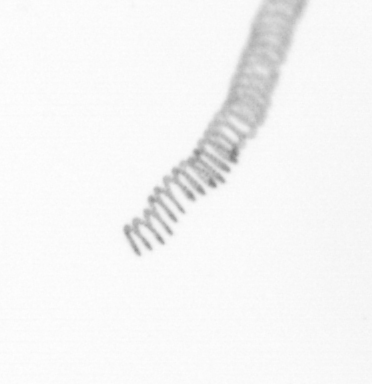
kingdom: Chromista
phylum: Ochrophyta
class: Bacillariophyceae
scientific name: Bacillariophyceae
